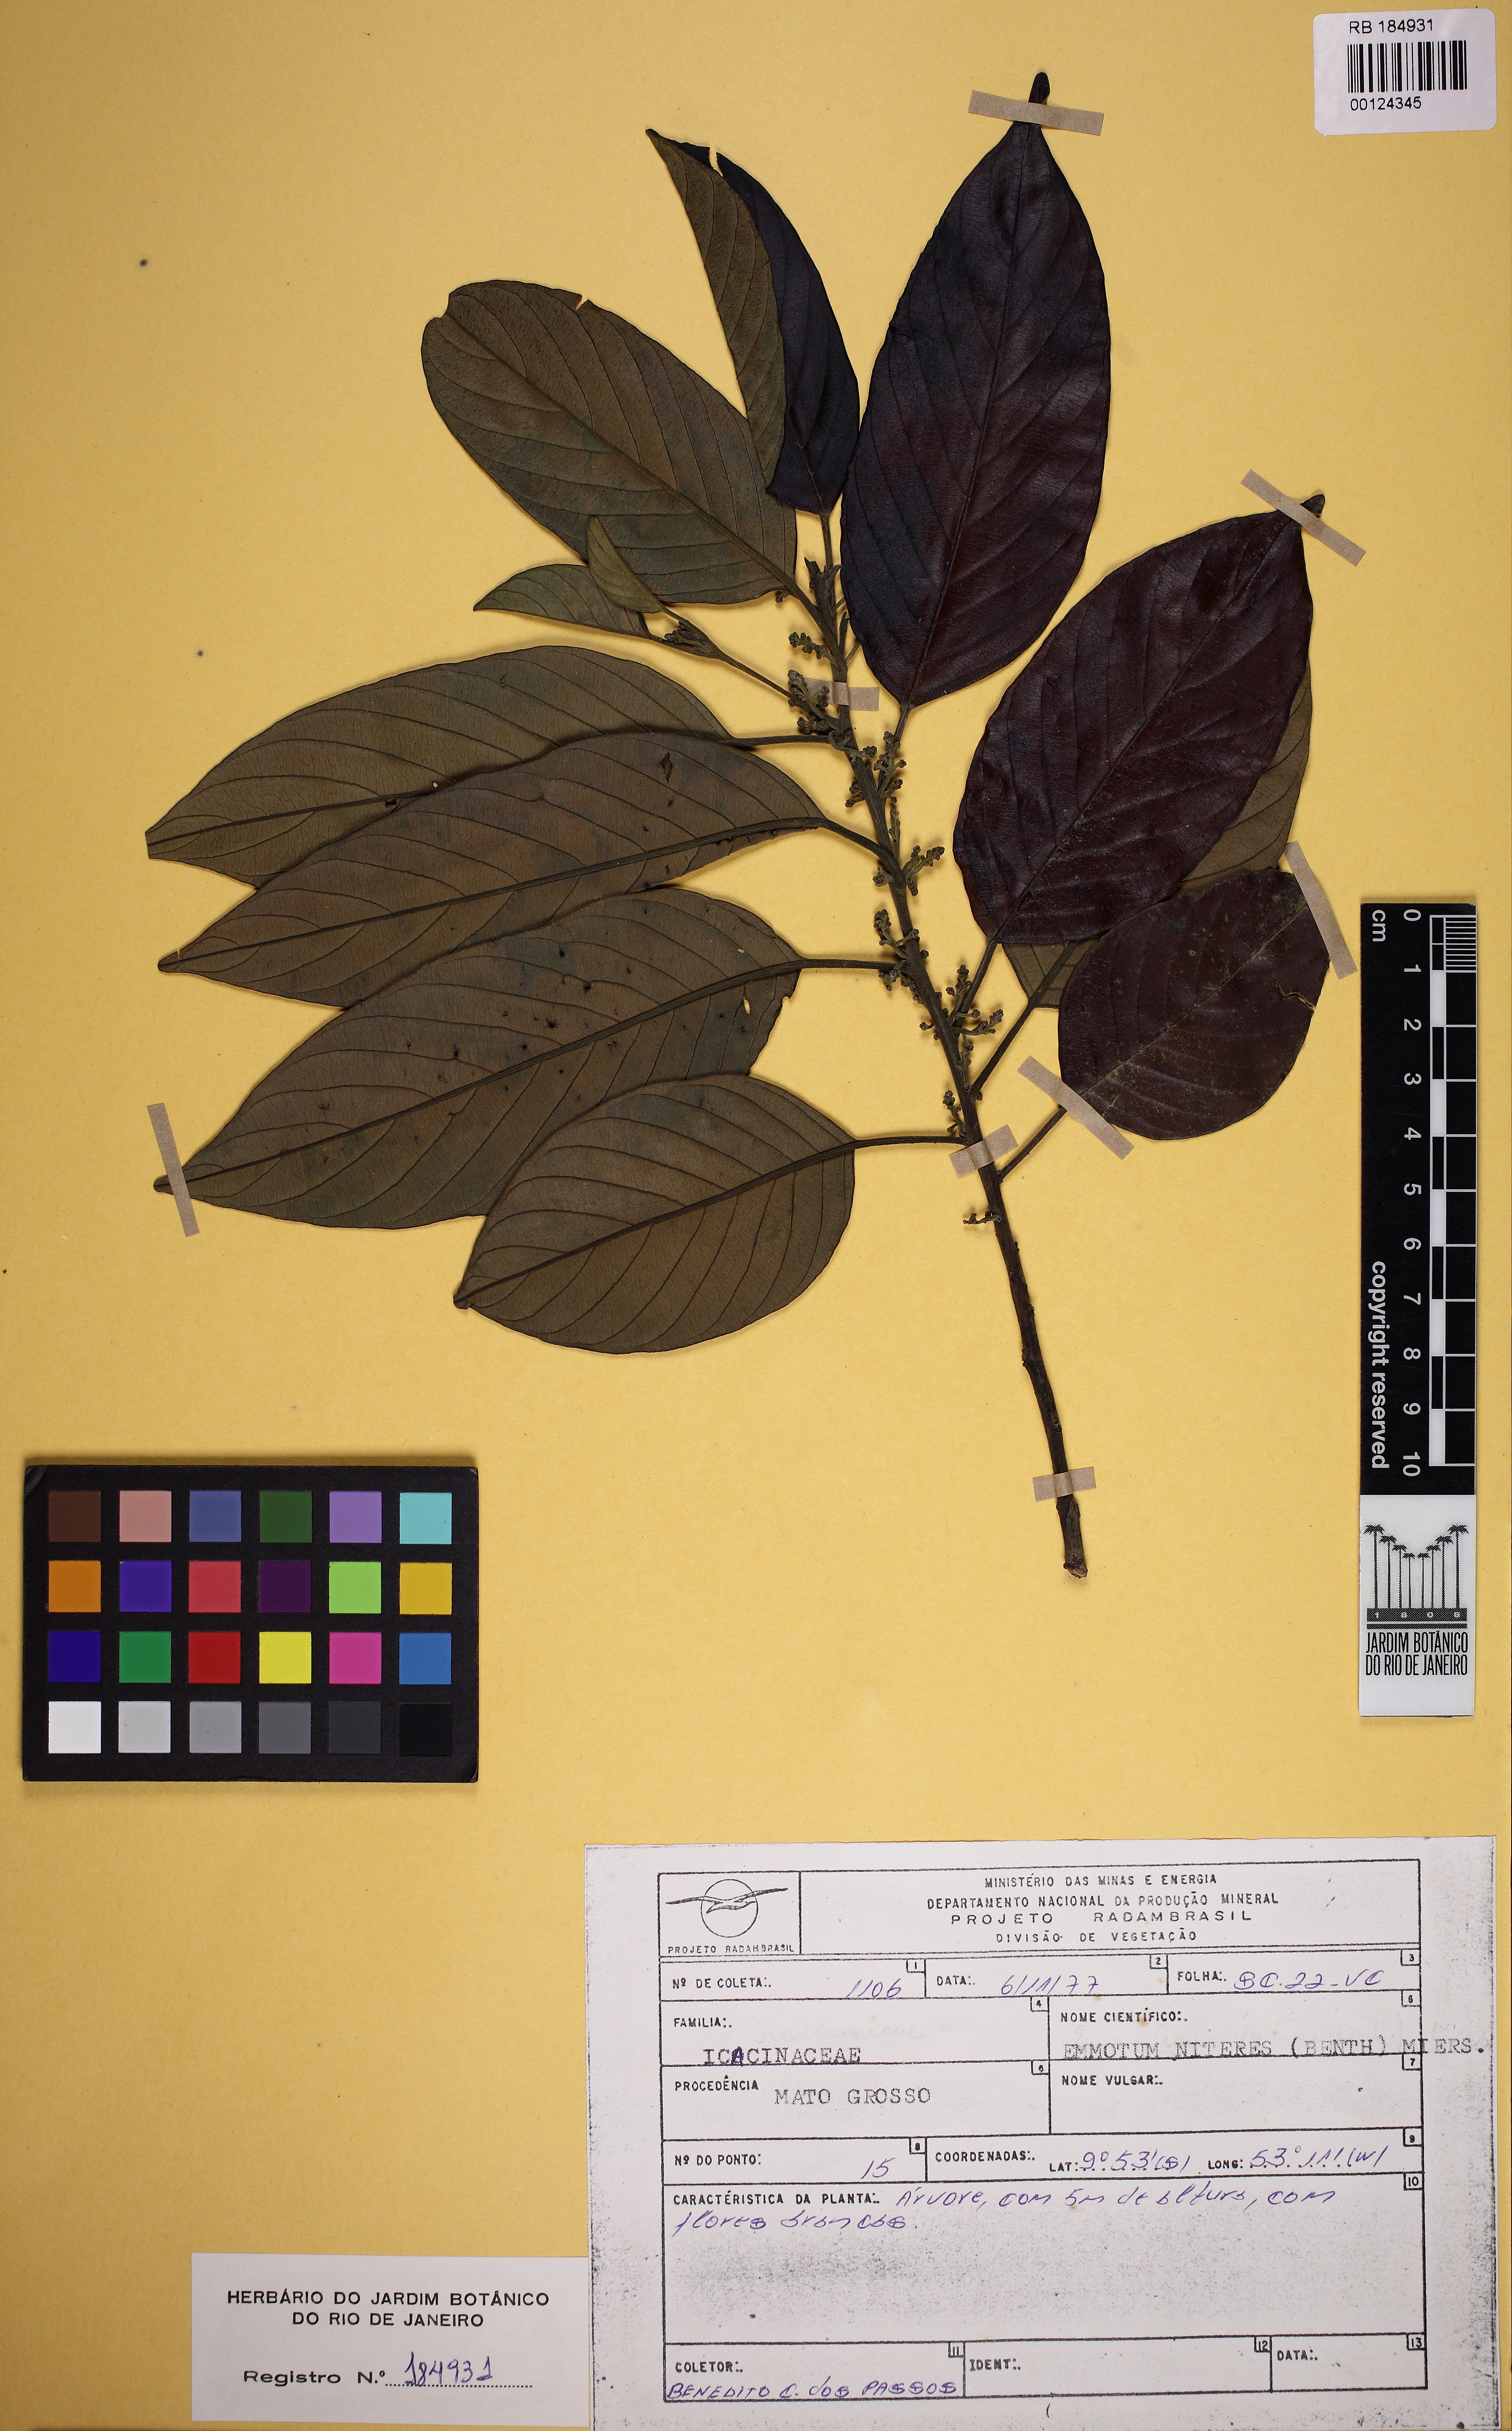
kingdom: Plantae
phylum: Tracheophyta
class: Magnoliopsida
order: Metteniusales
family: Metteniusaceae
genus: Emmotum
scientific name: Emmotum nitens
